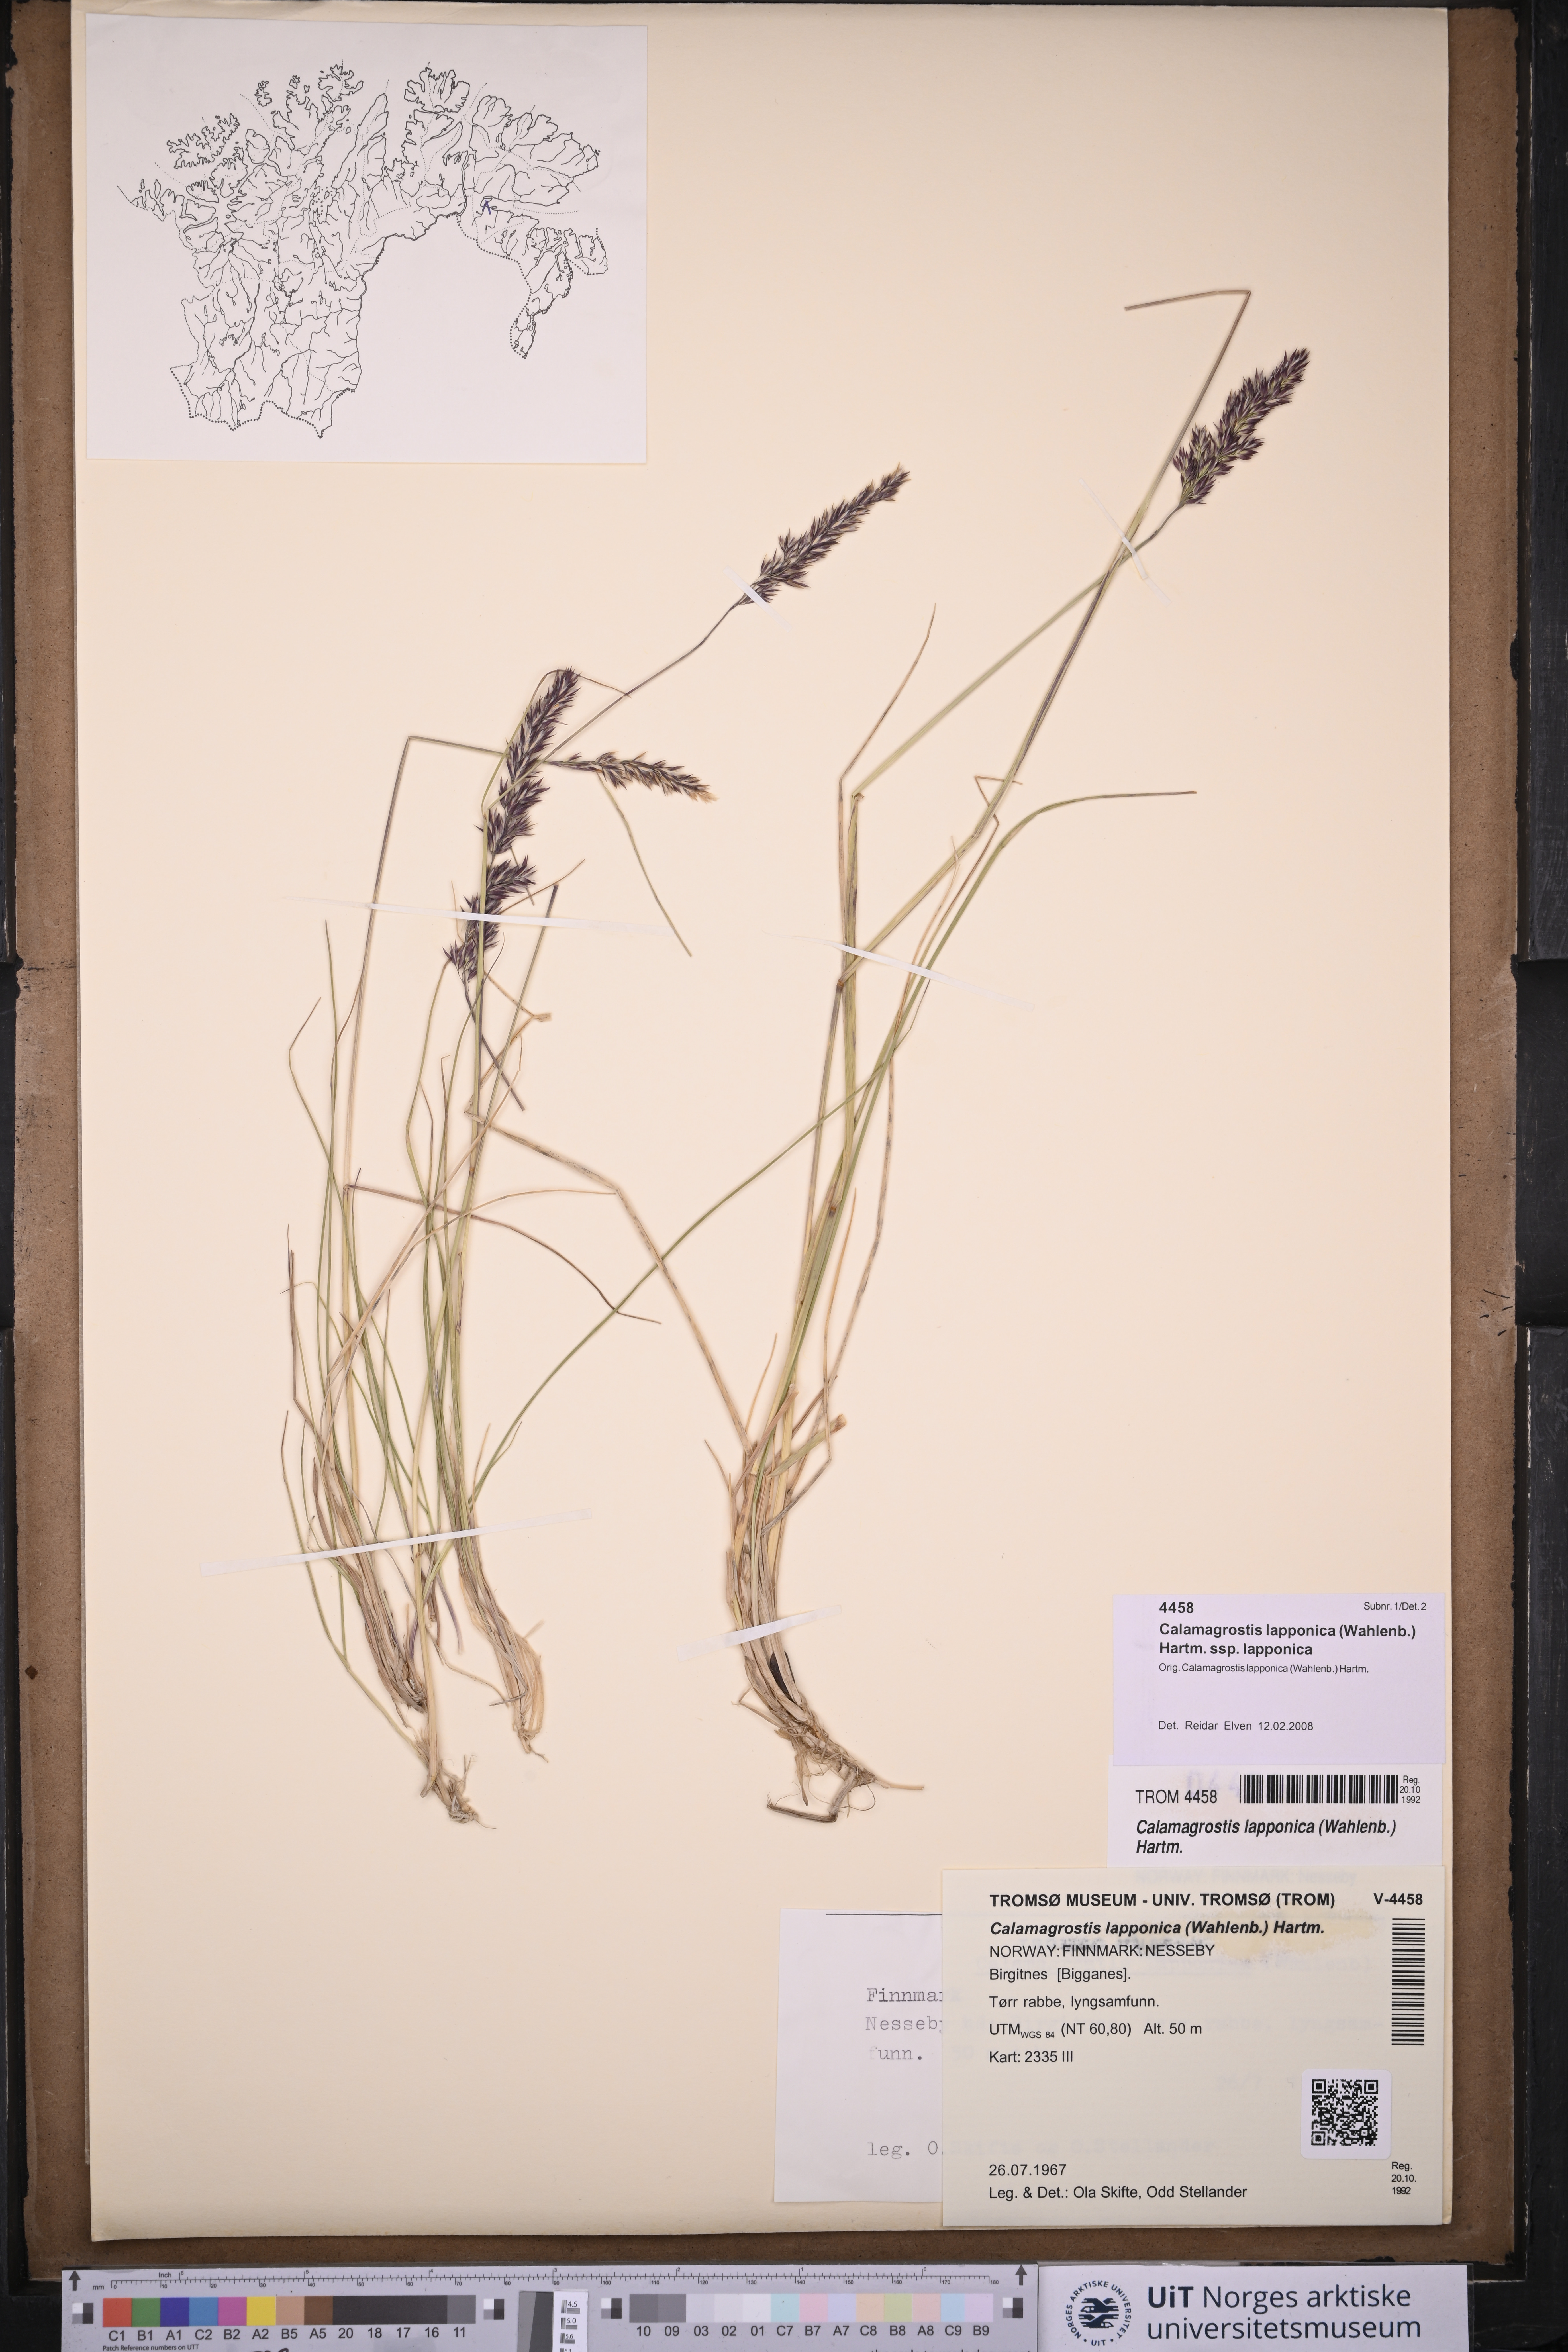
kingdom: Plantae
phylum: Tracheophyta
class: Liliopsida
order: Poales
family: Poaceae
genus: Calamagrostis
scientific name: Calamagrostis lapponica
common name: Lapland reedgrass
